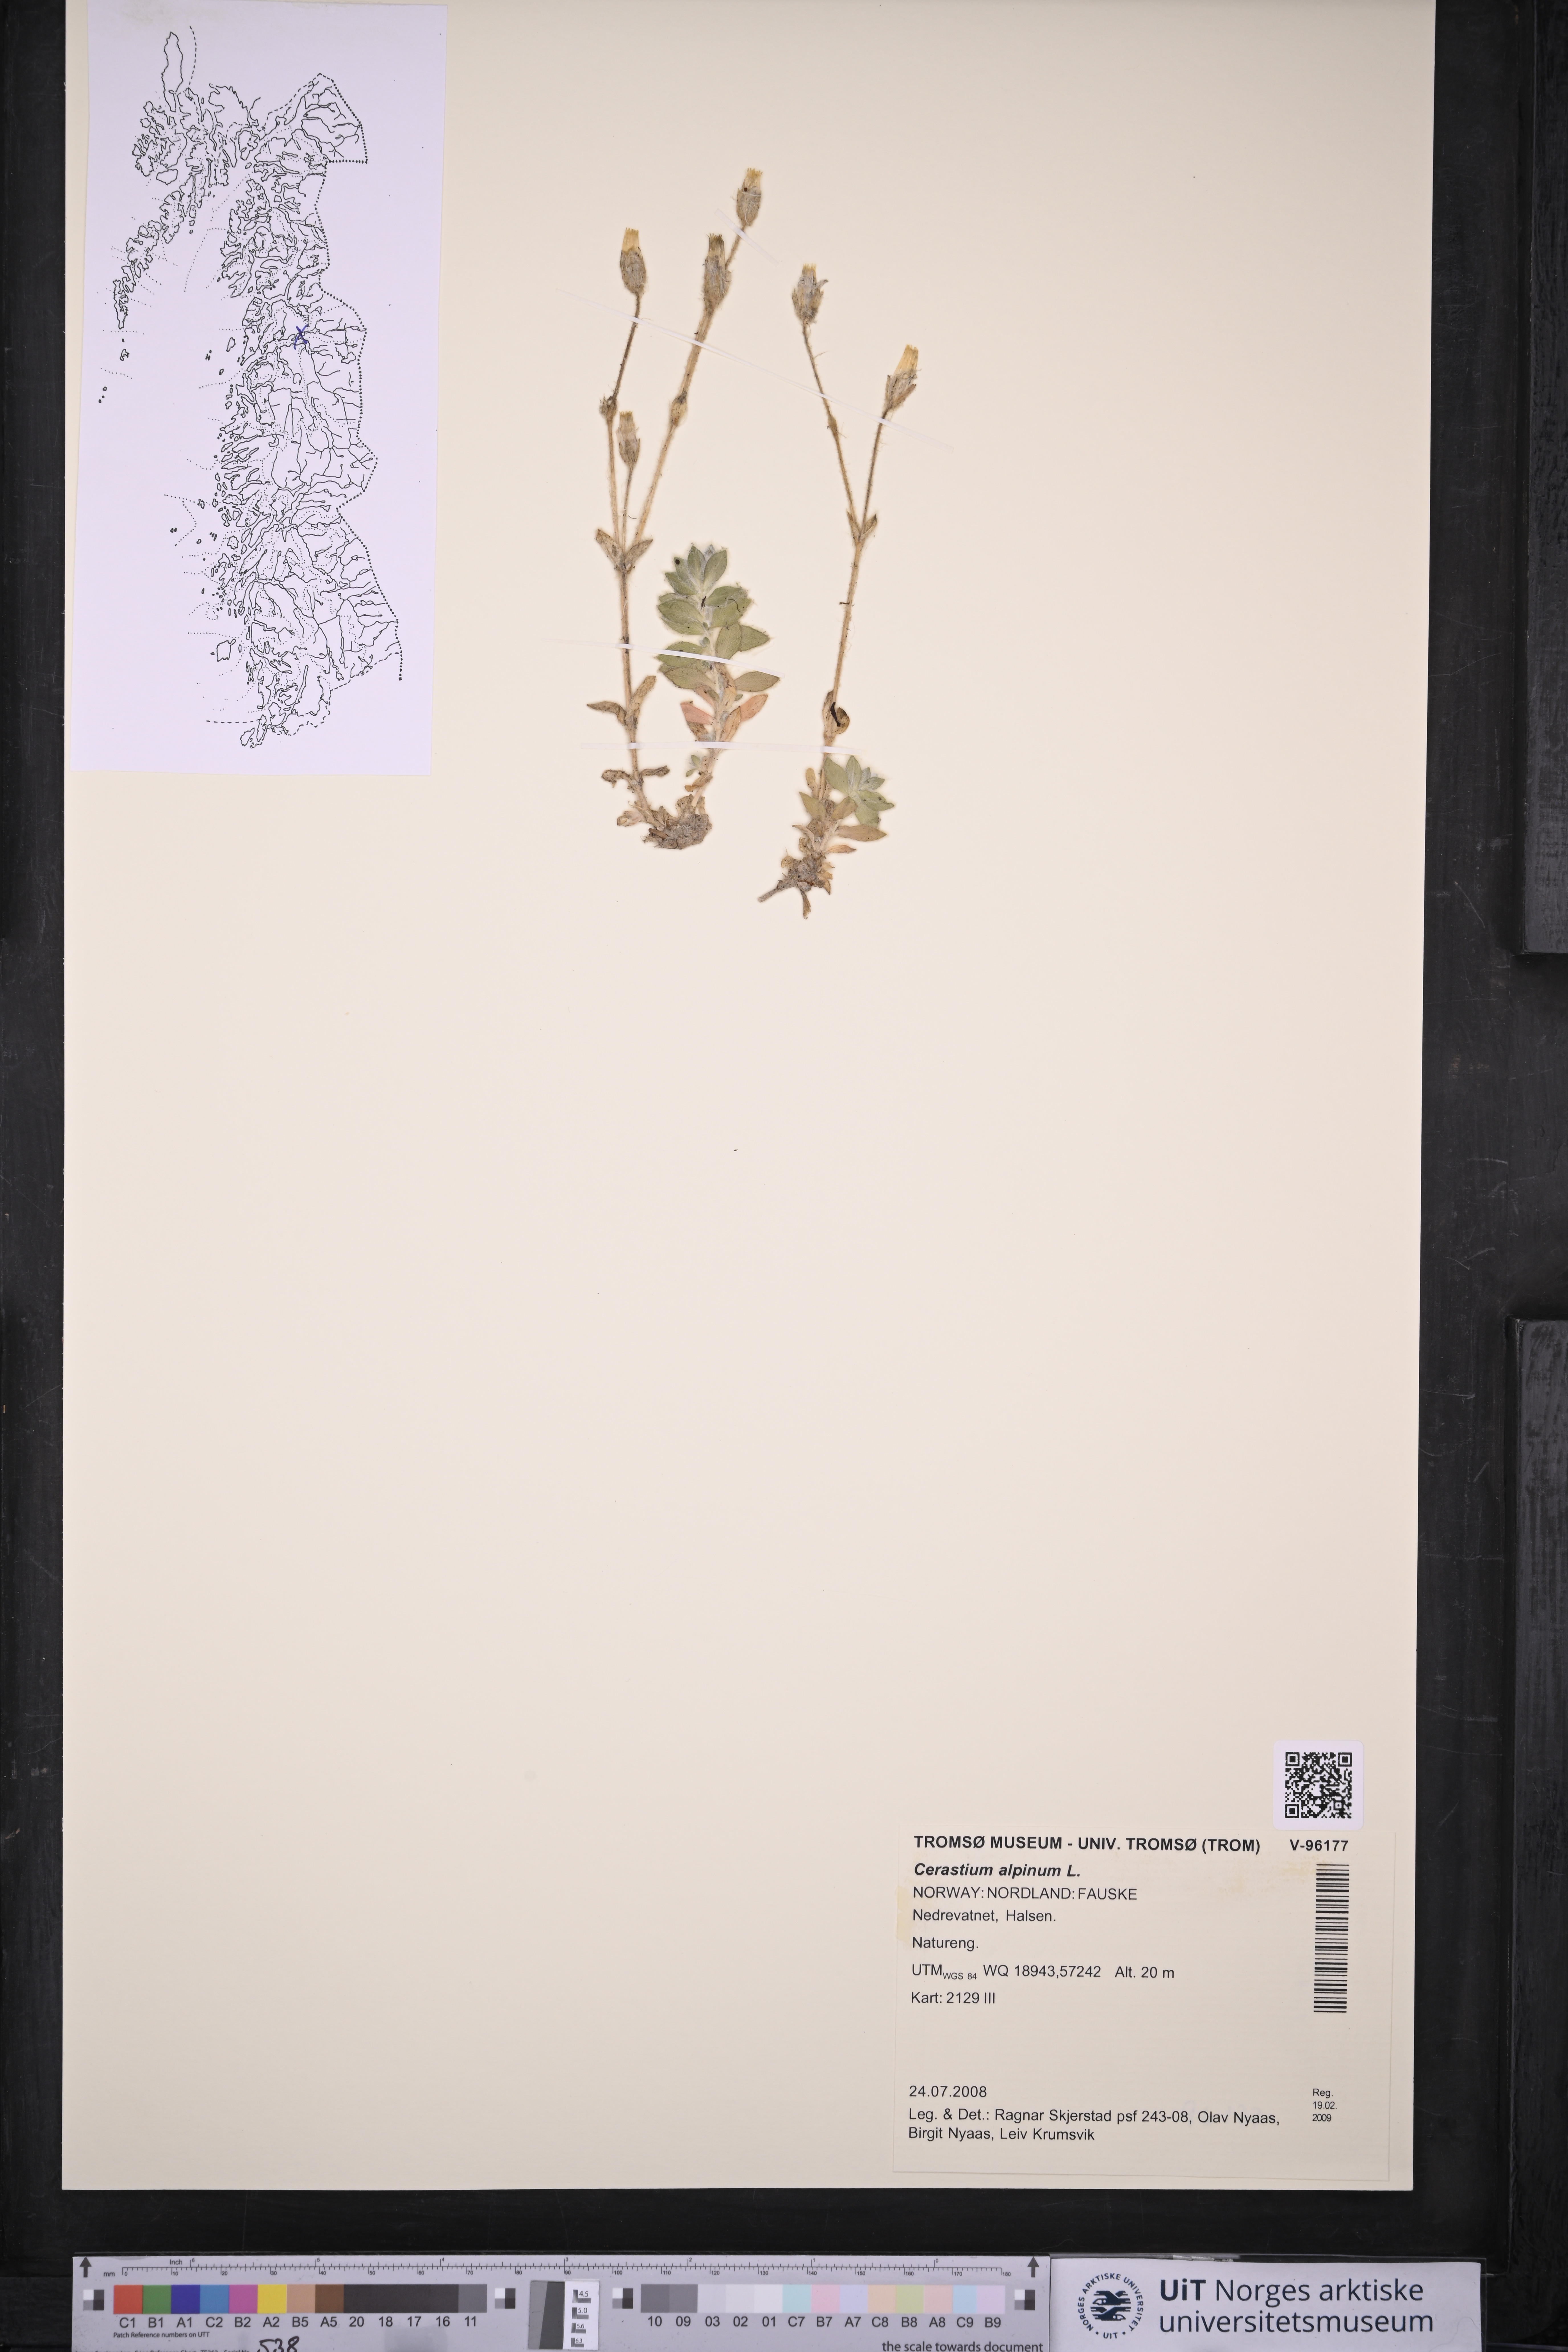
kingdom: Plantae
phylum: Tracheophyta
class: Magnoliopsida
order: Caryophyllales
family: Caryophyllaceae
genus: Cerastium
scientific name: Cerastium alpinum
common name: Alpine mouse-ear
